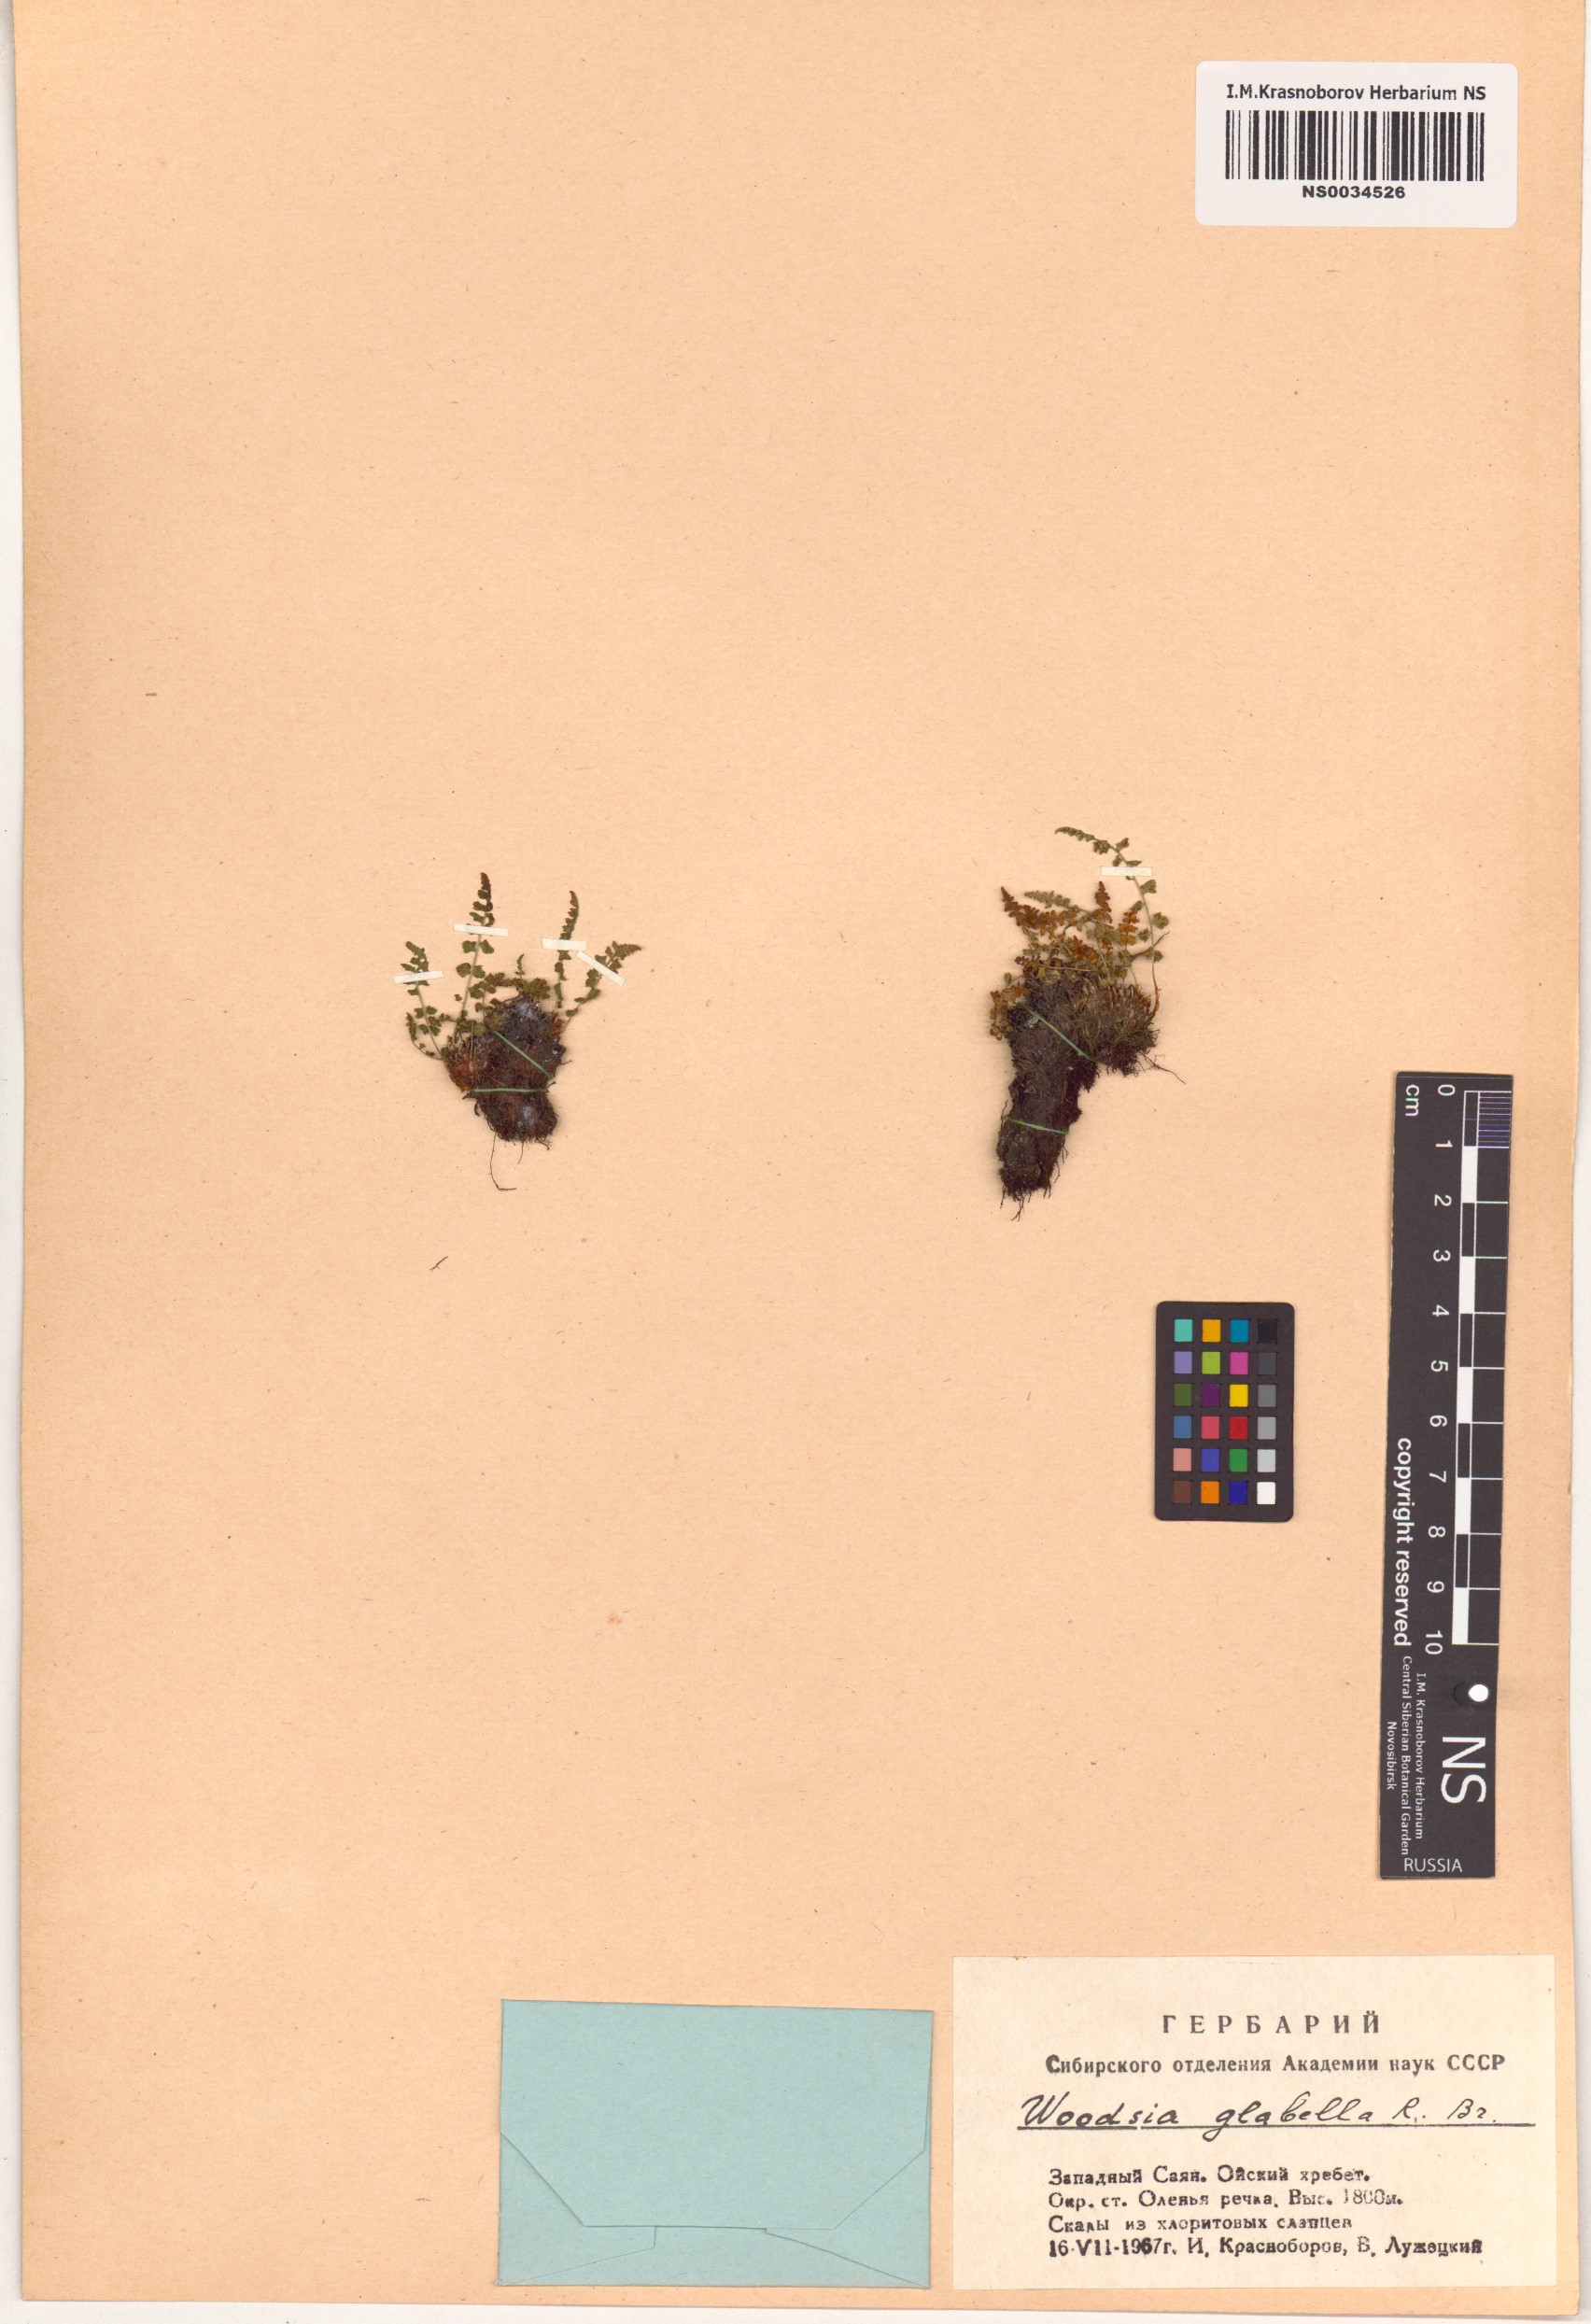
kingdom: Plantae
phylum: Tracheophyta
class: Polypodiopsida
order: Polypodiales
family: Woodsiaceae
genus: Woodsia
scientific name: Woodsia glabella
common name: Smooth woodsia
